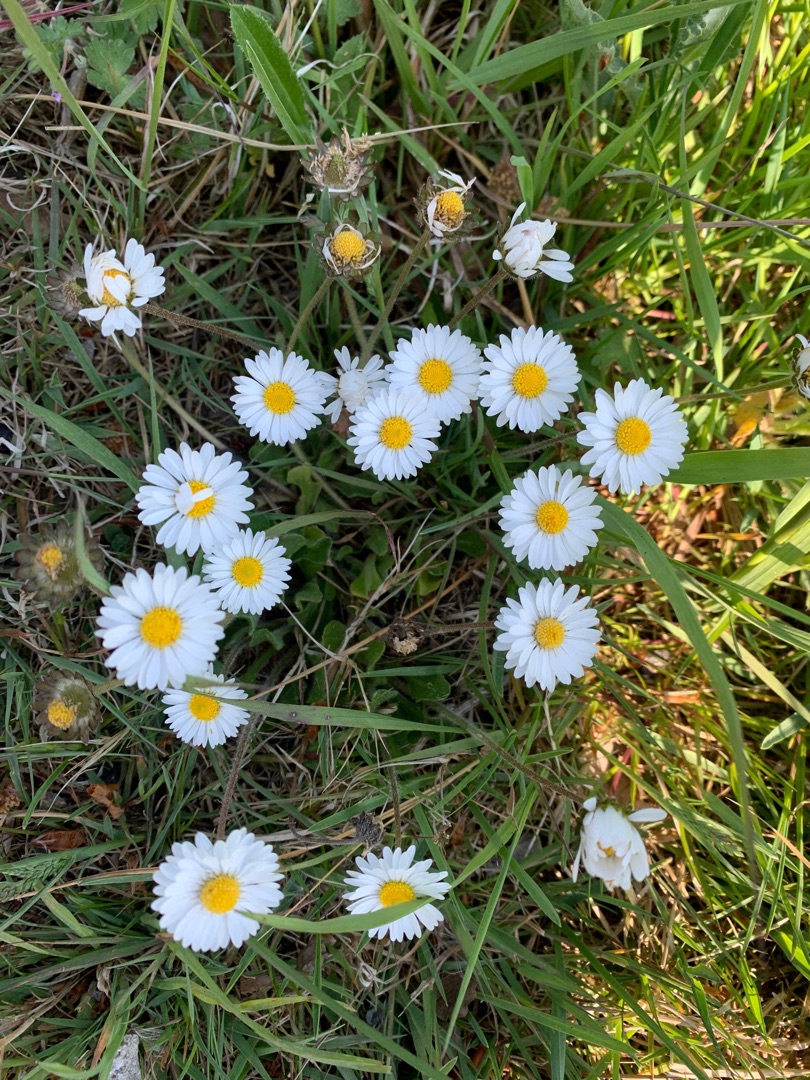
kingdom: Plantae
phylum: Tracheophyta
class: Magnoliopsida
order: Asterales
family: Asteraceae
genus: Bellis
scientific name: Bellis perennis
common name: Tusindfryd
